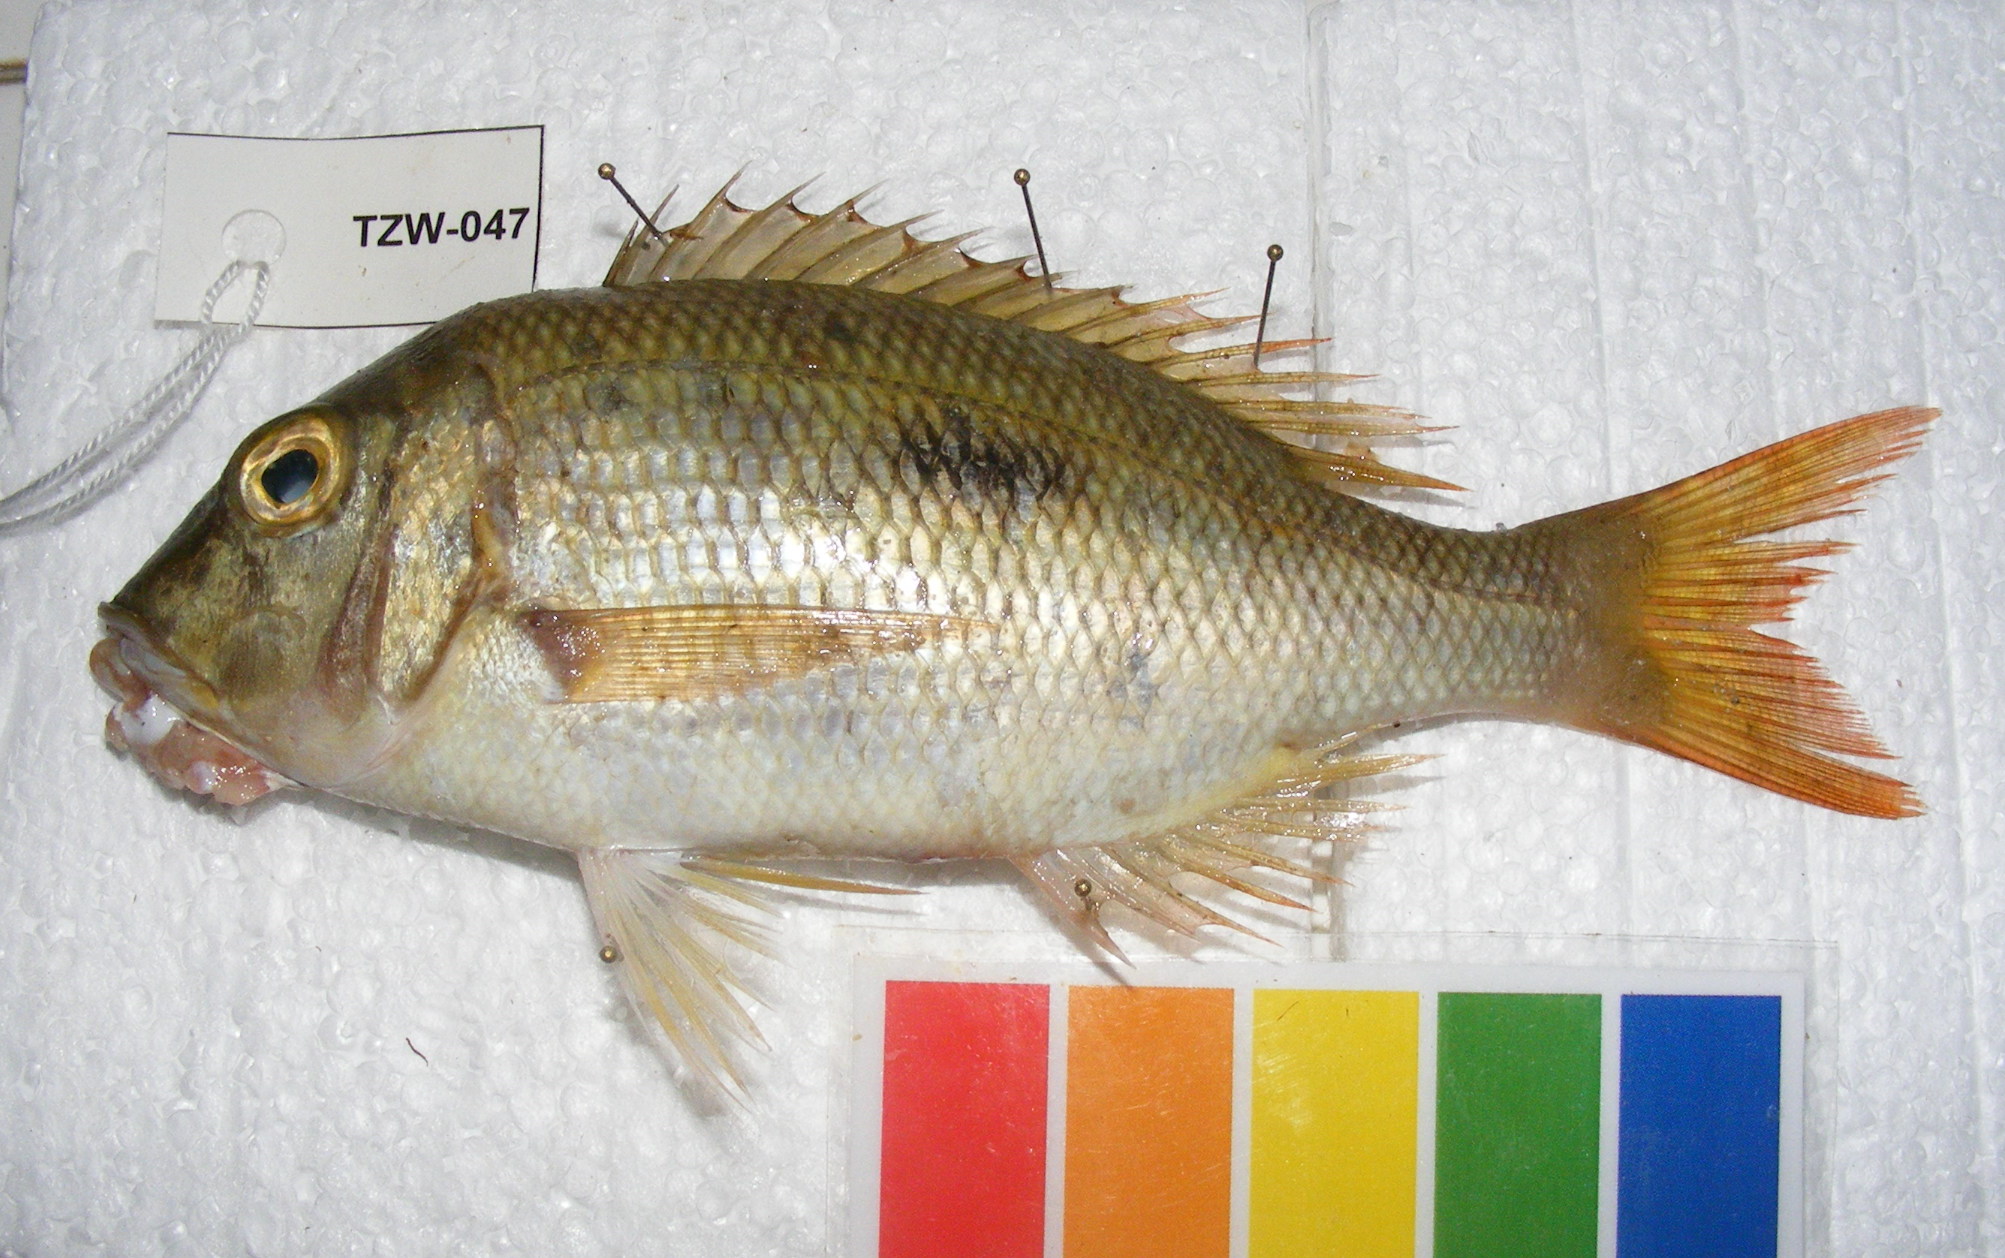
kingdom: Animalia
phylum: Chordata
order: Perciformes
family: Lethrinidae
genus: Lethrinus
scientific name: Lethrinus harak
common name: Blackspot emperor
